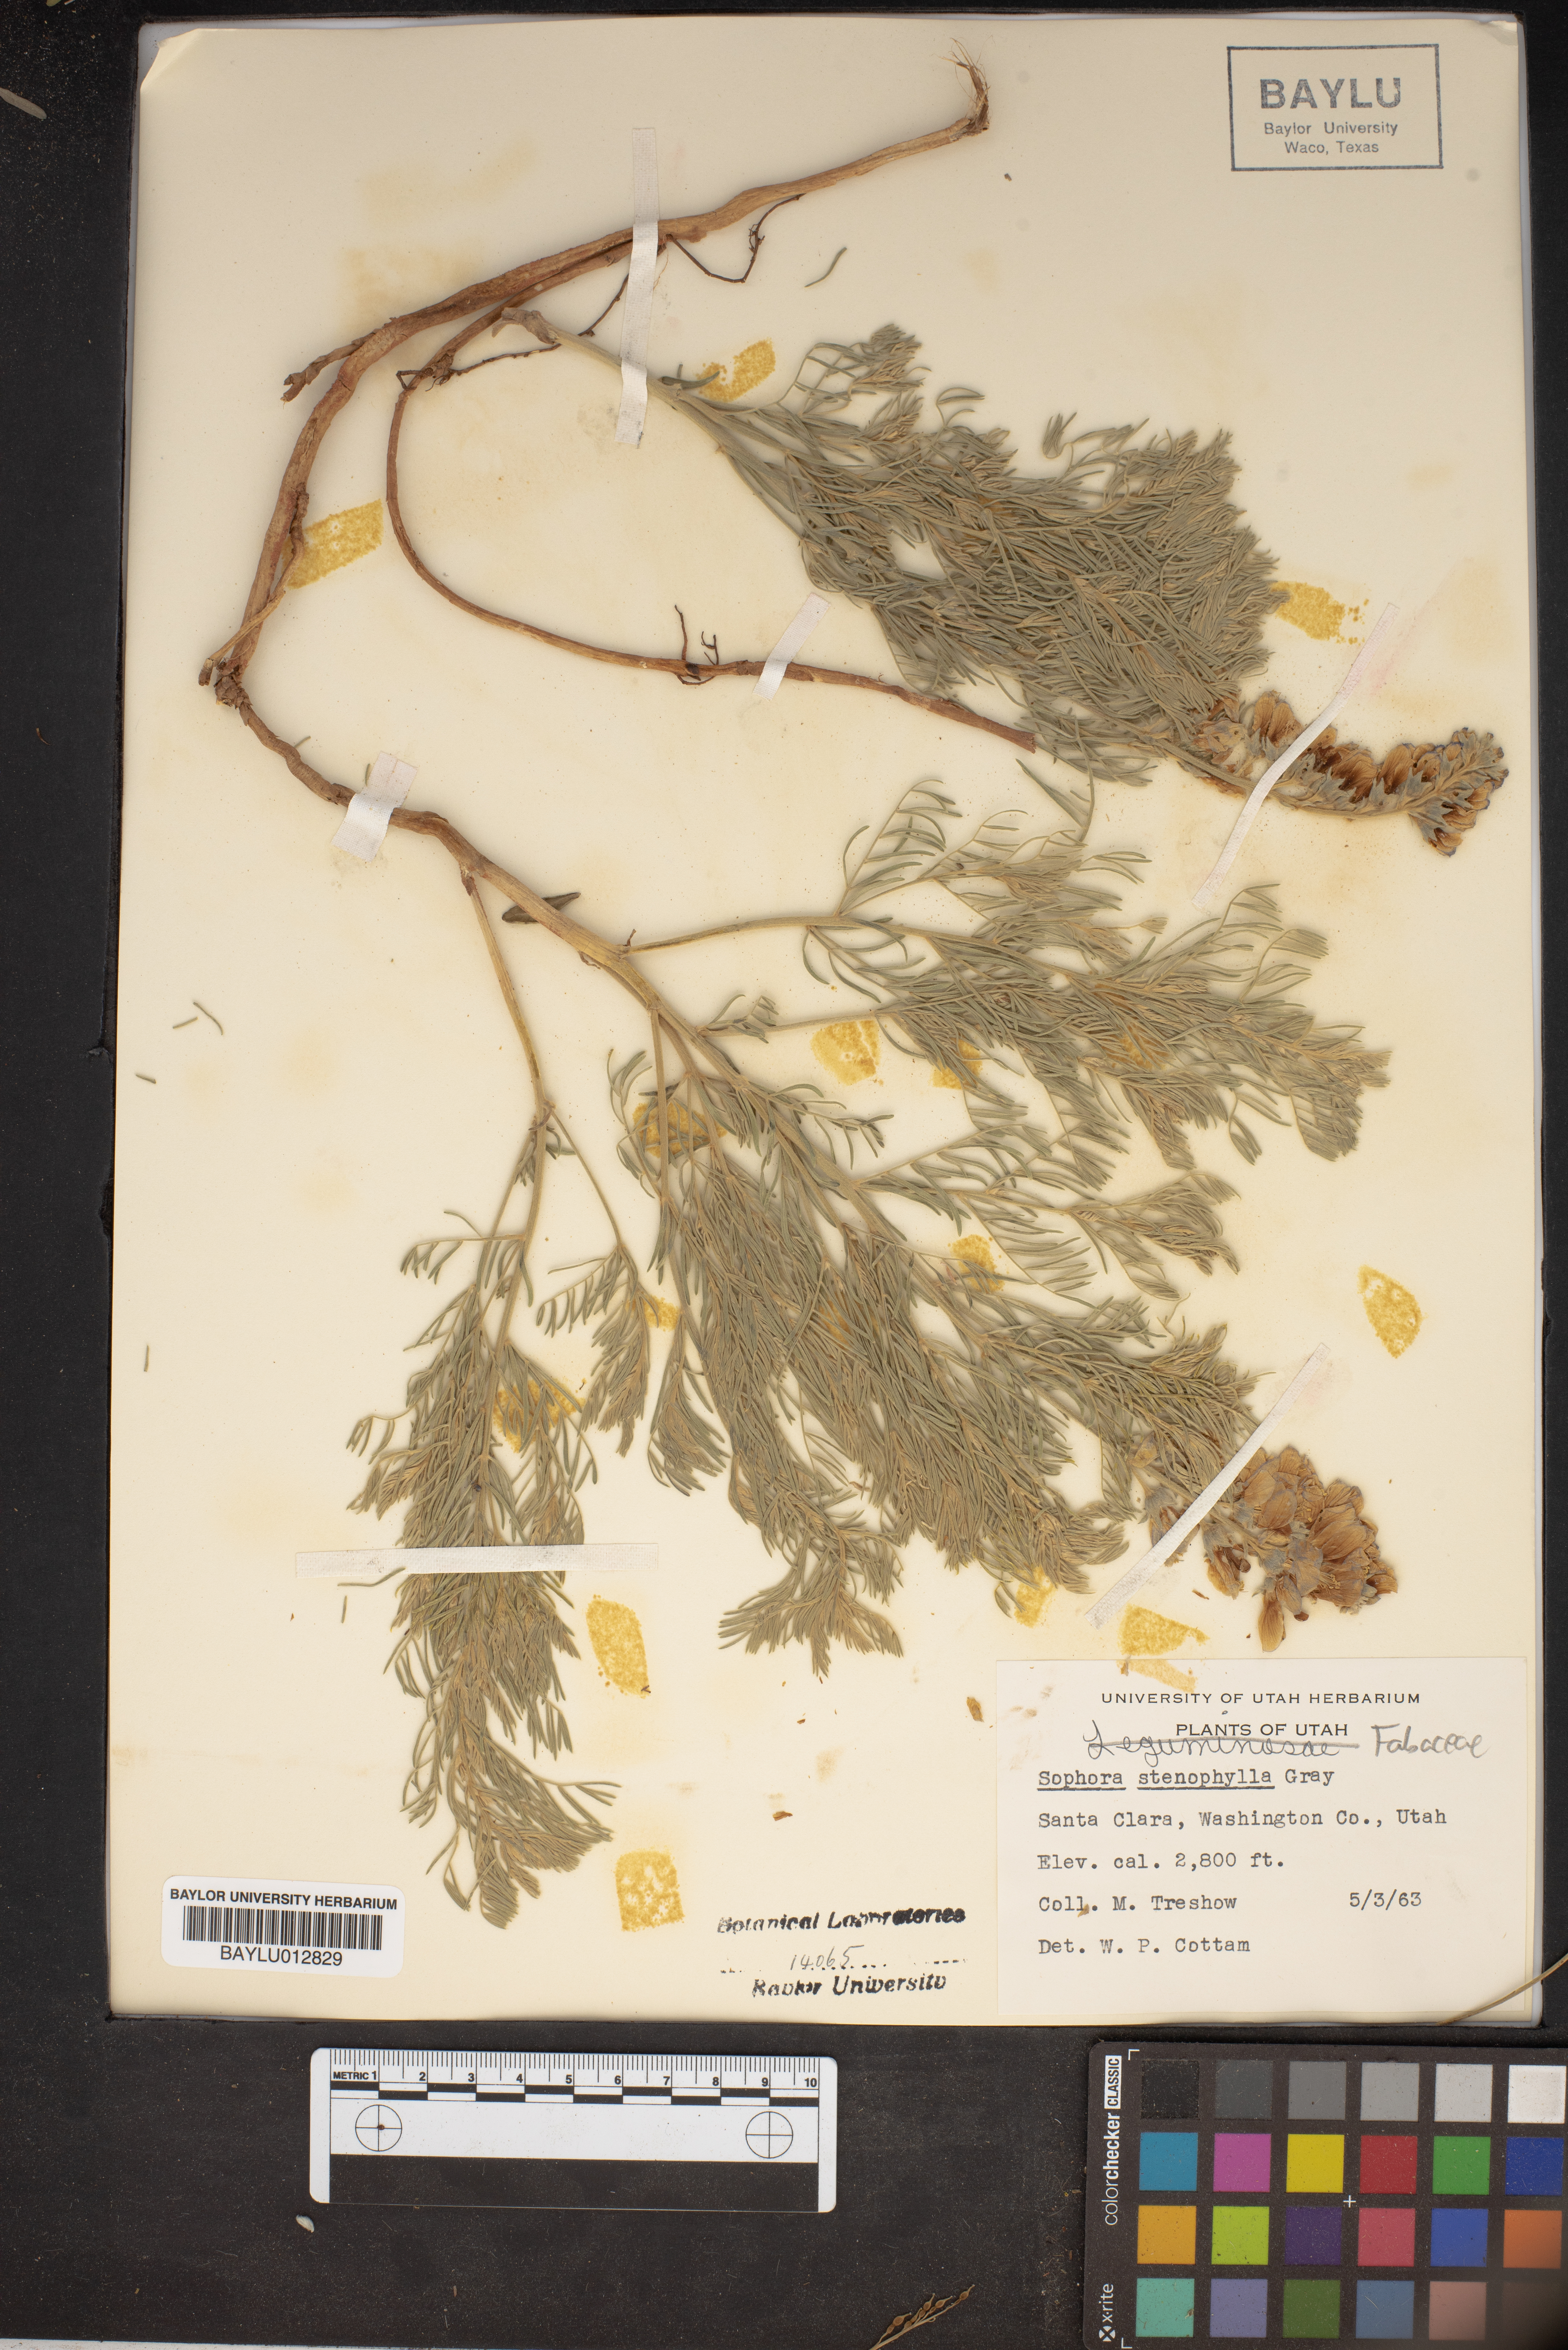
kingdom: Plantae
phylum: Tracheophyta
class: Magnoliopsida
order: Fabales
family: Fabaceae
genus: Sophora
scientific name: Sophora stenophylla
